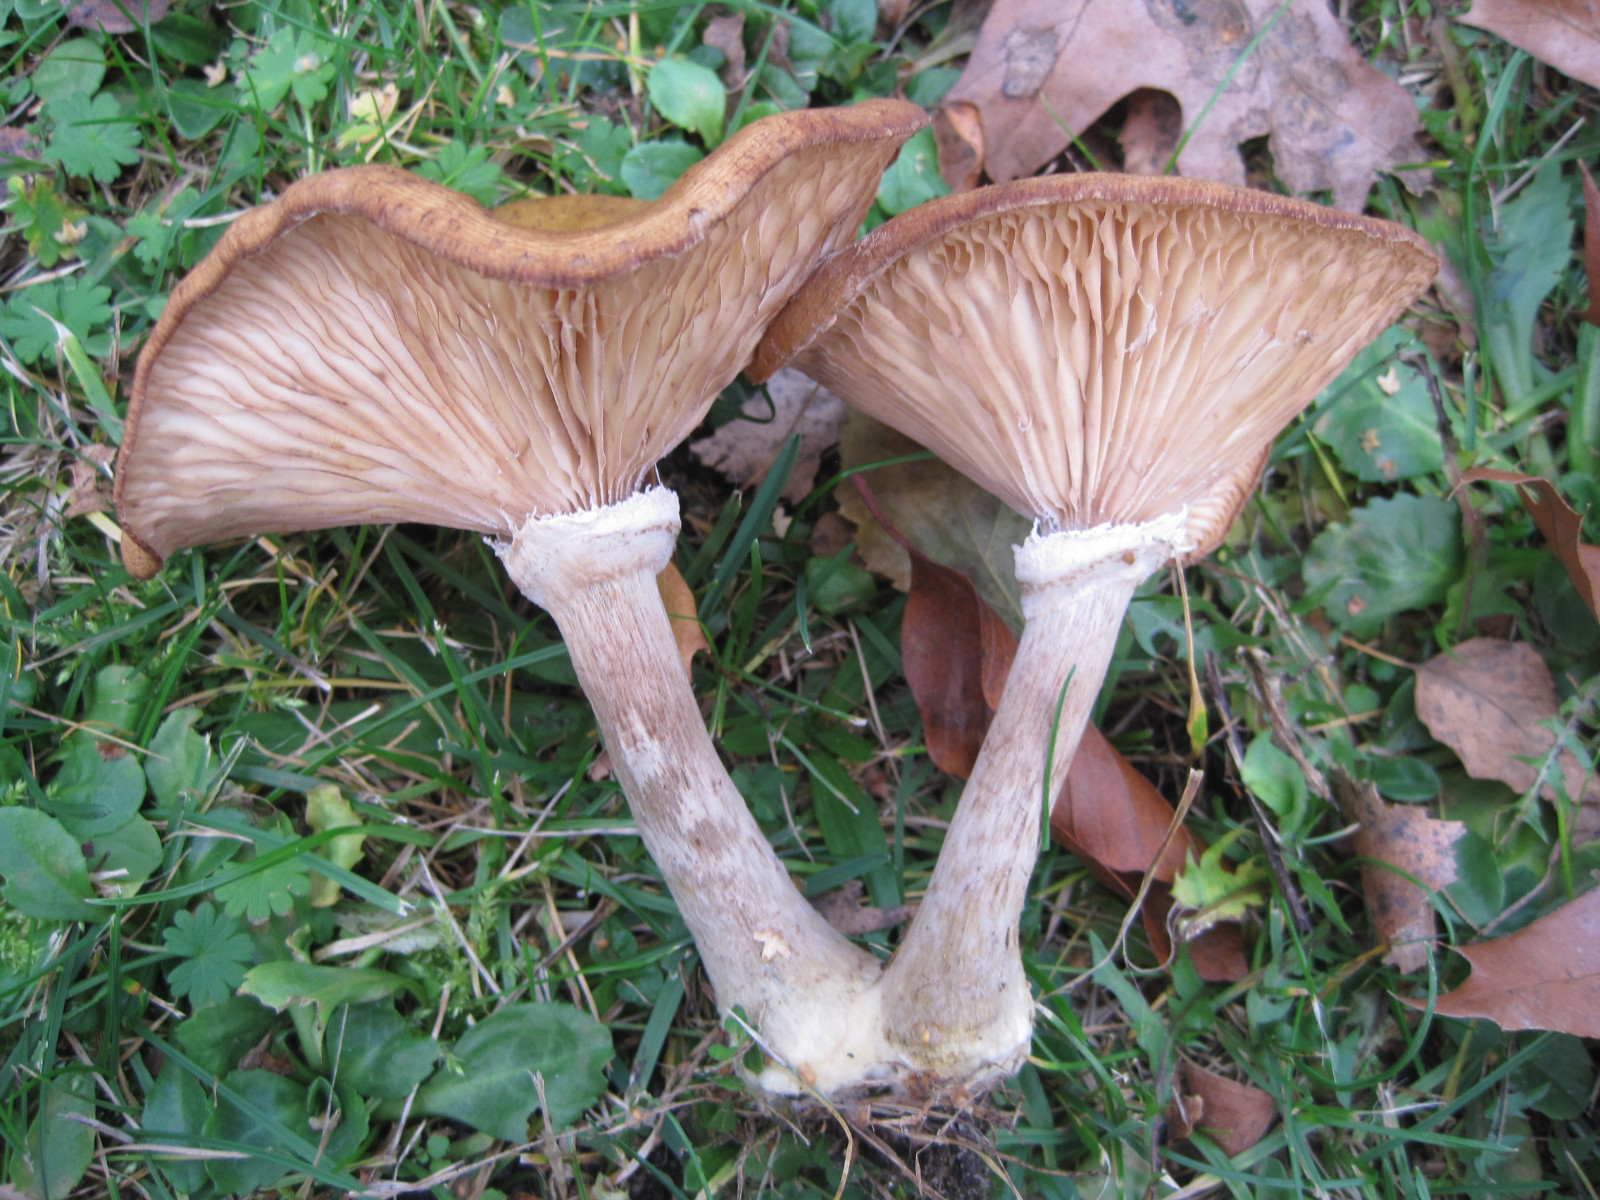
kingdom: Fungi
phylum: Basidiomycota
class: Agaricomycetes
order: Agaricales
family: Physalacriaceae
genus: Armillaria
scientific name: Armillaria lutea
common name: køllestokket honningsvamp
